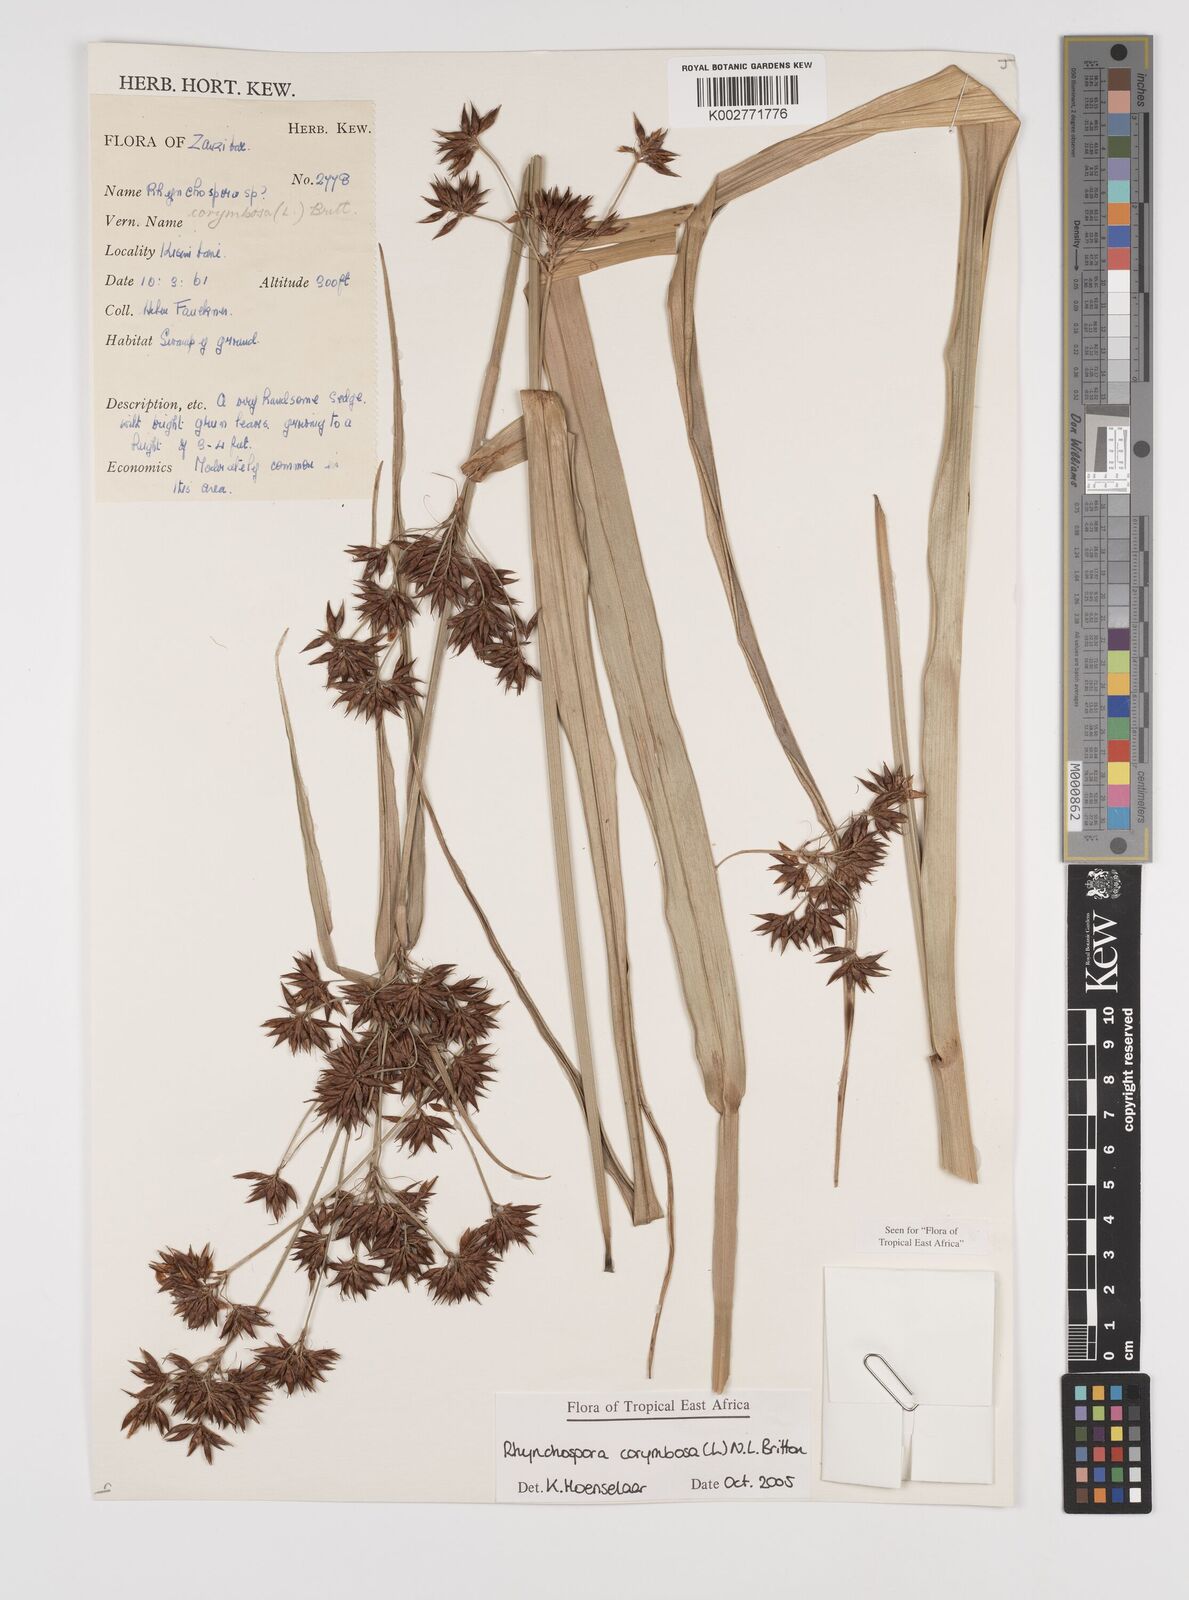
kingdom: Plantae
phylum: Tracheophyta
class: Liliopsida
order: Poales
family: Cyperaceae
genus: Rhynchospora
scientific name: Rhynchospora corymbosa
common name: Golden beak sedge
